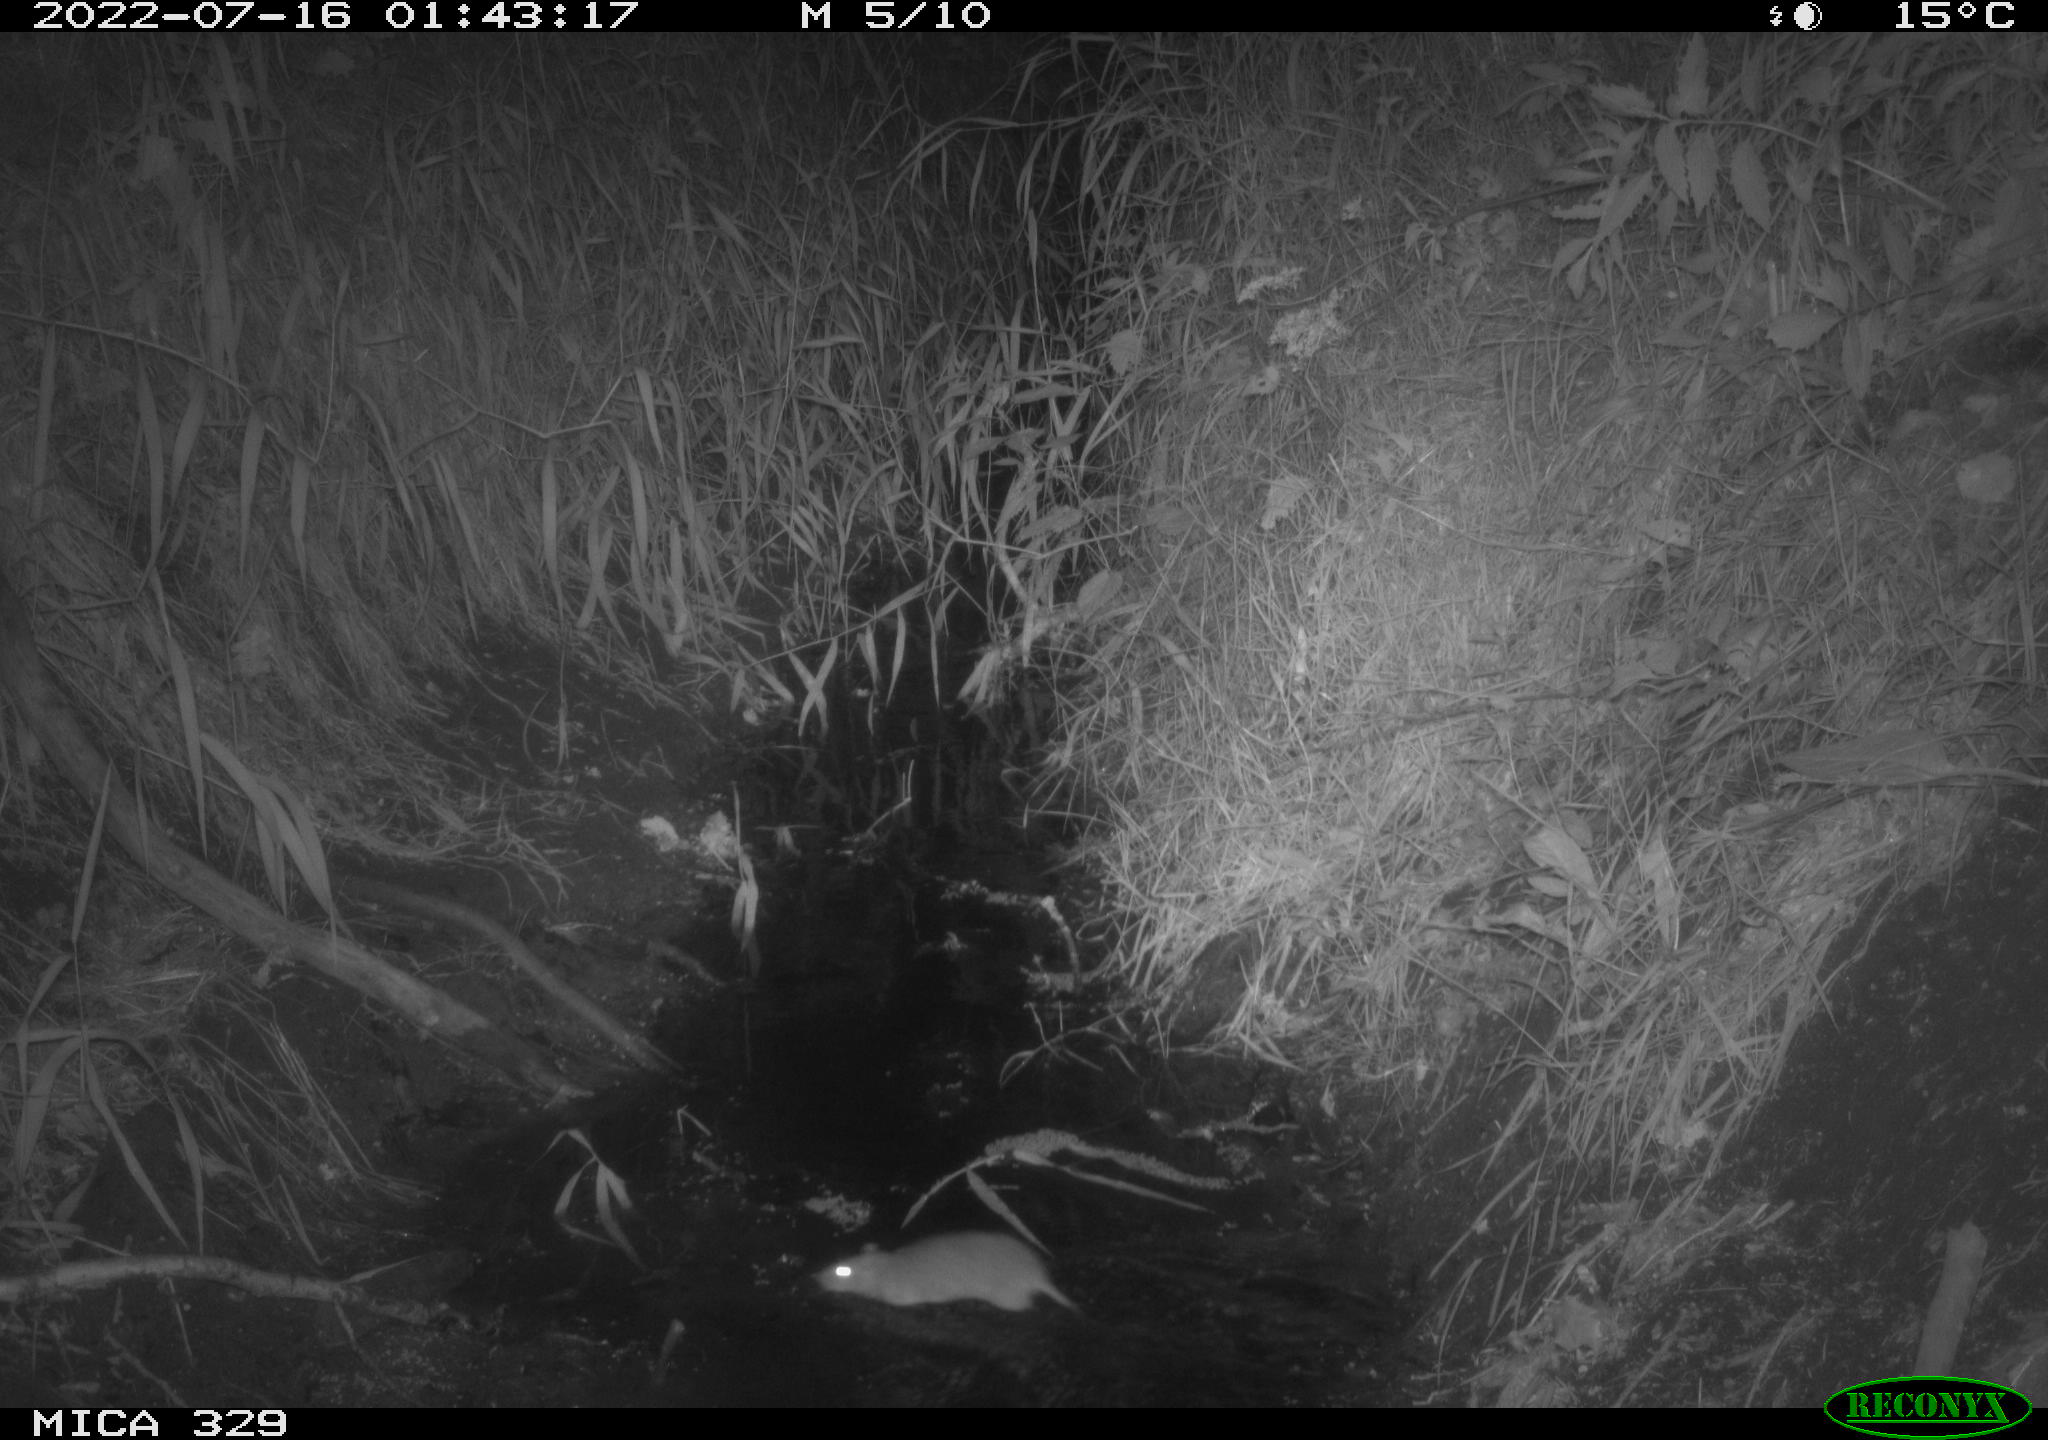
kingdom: Animalia
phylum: Chordata
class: Mammalia
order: Rodentia
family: Muridae
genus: Rattus
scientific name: Rattus norvegicus
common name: Brown rat
